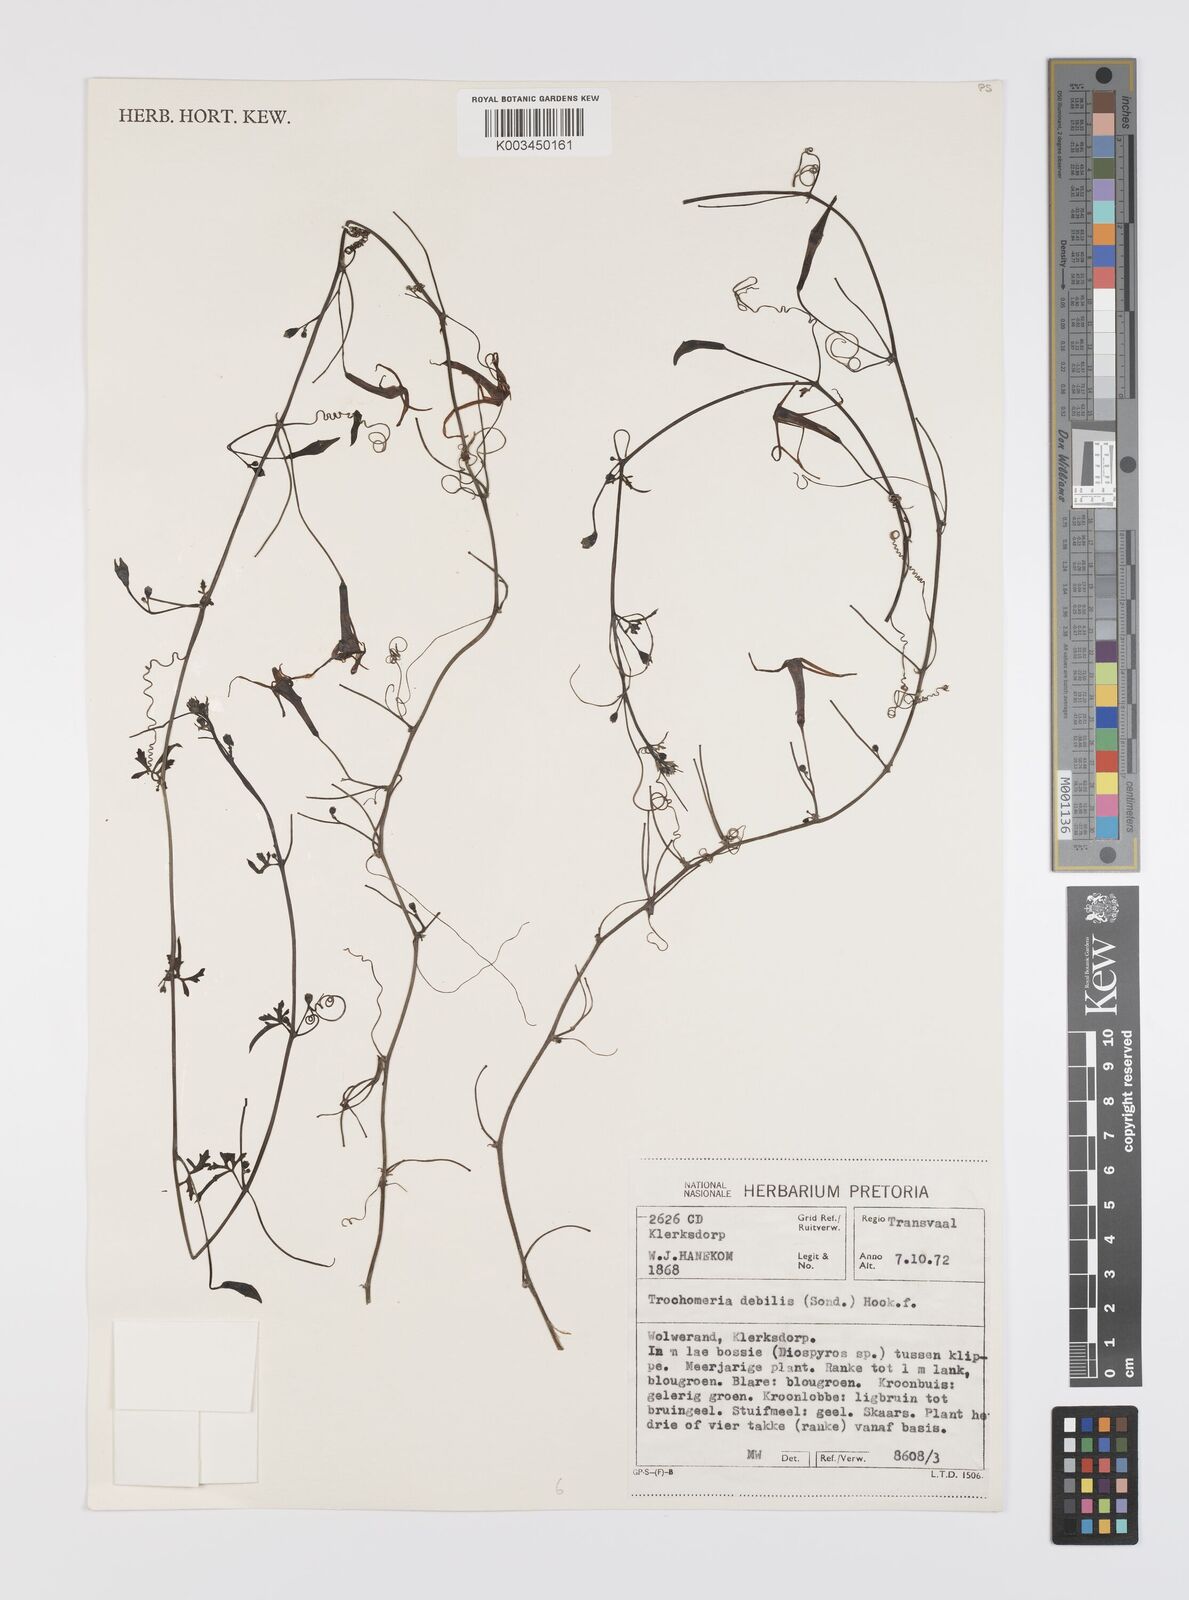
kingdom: Plantae
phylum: Tracheophyta
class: Magnoliopsida
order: Cucurbitales
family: Cucurbitaceae
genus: Trochomeria
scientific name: Trochomeria debilis
